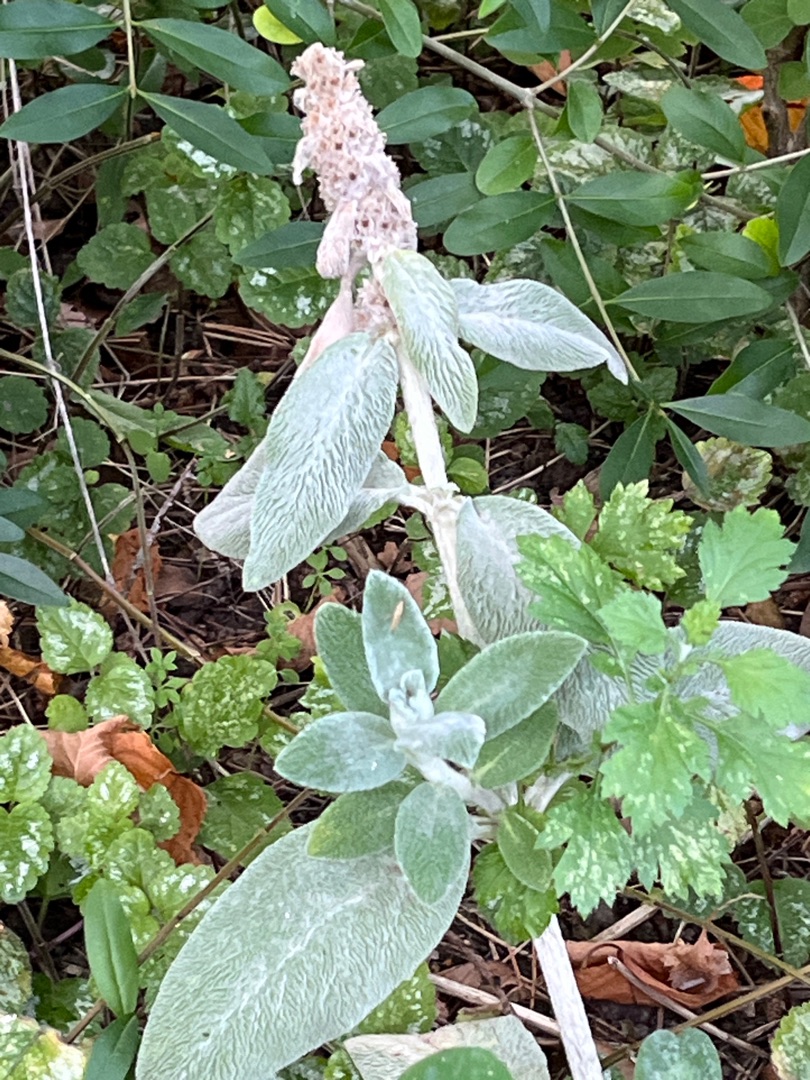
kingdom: Plantae
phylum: Tracheophyta
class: Magnoliopsida
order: Lamiales
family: Lamiaceae
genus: Stachys
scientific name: Stachys byzantina
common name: Lammeøre
